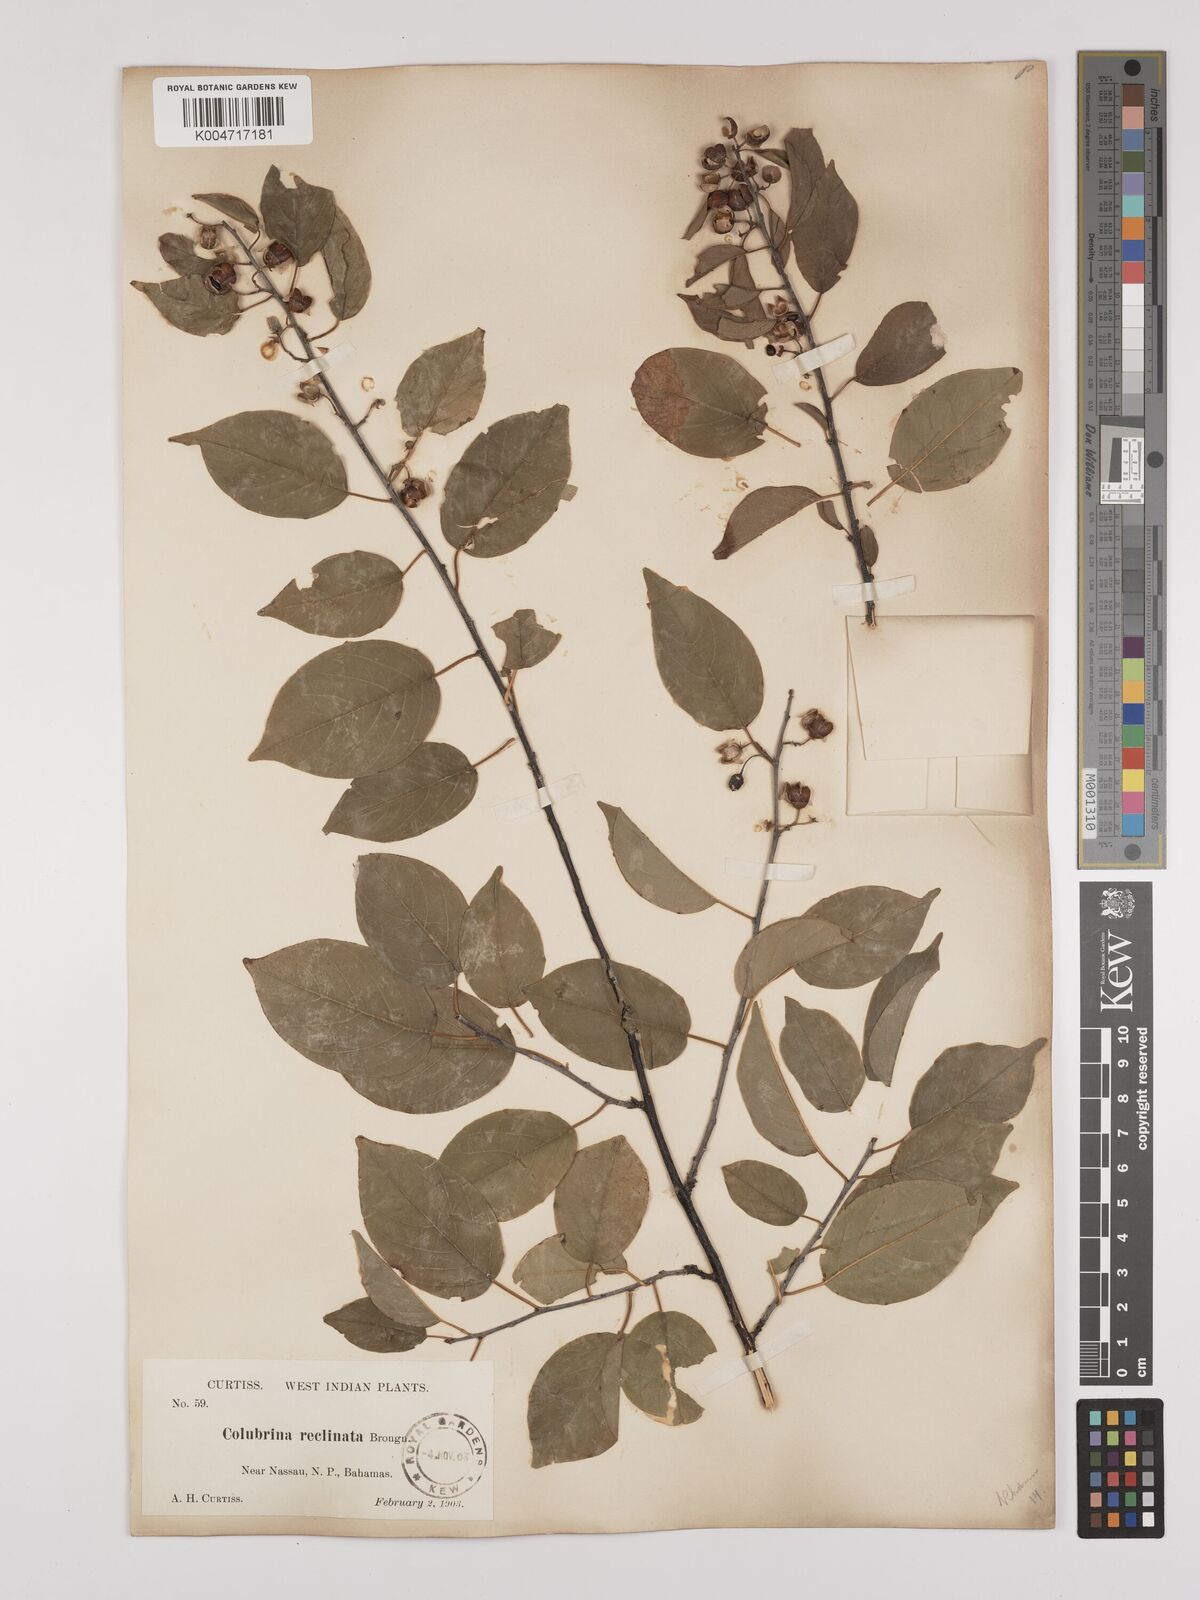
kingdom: Plantae
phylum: Tracheophyta
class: Magnoliopsida
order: Rosales
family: Rhamnaceae
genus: Colubrina
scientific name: Colubrina elliptica
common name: Soldierwood
